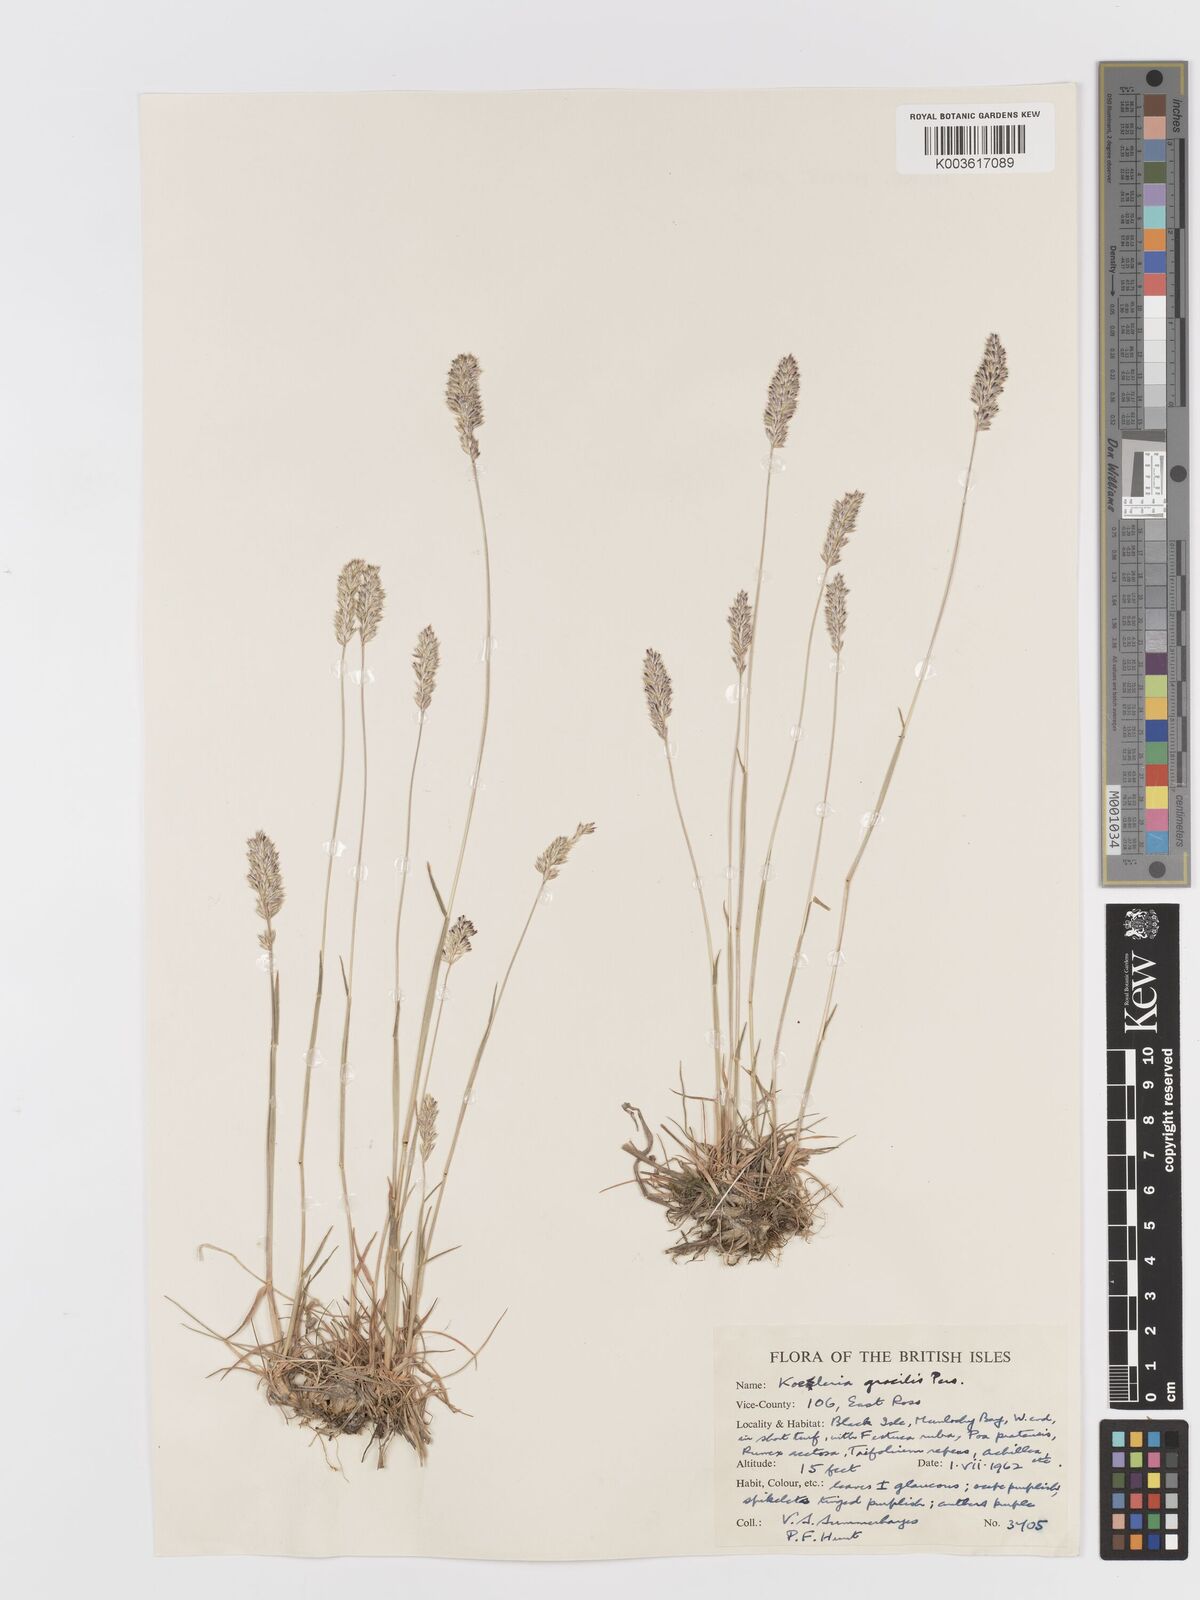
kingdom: Plantae
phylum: Tracheophyta
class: Liliopsida
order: Poales
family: Poaceae
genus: Koeleria
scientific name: Koeleria macrantha
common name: Crested hair-grass
